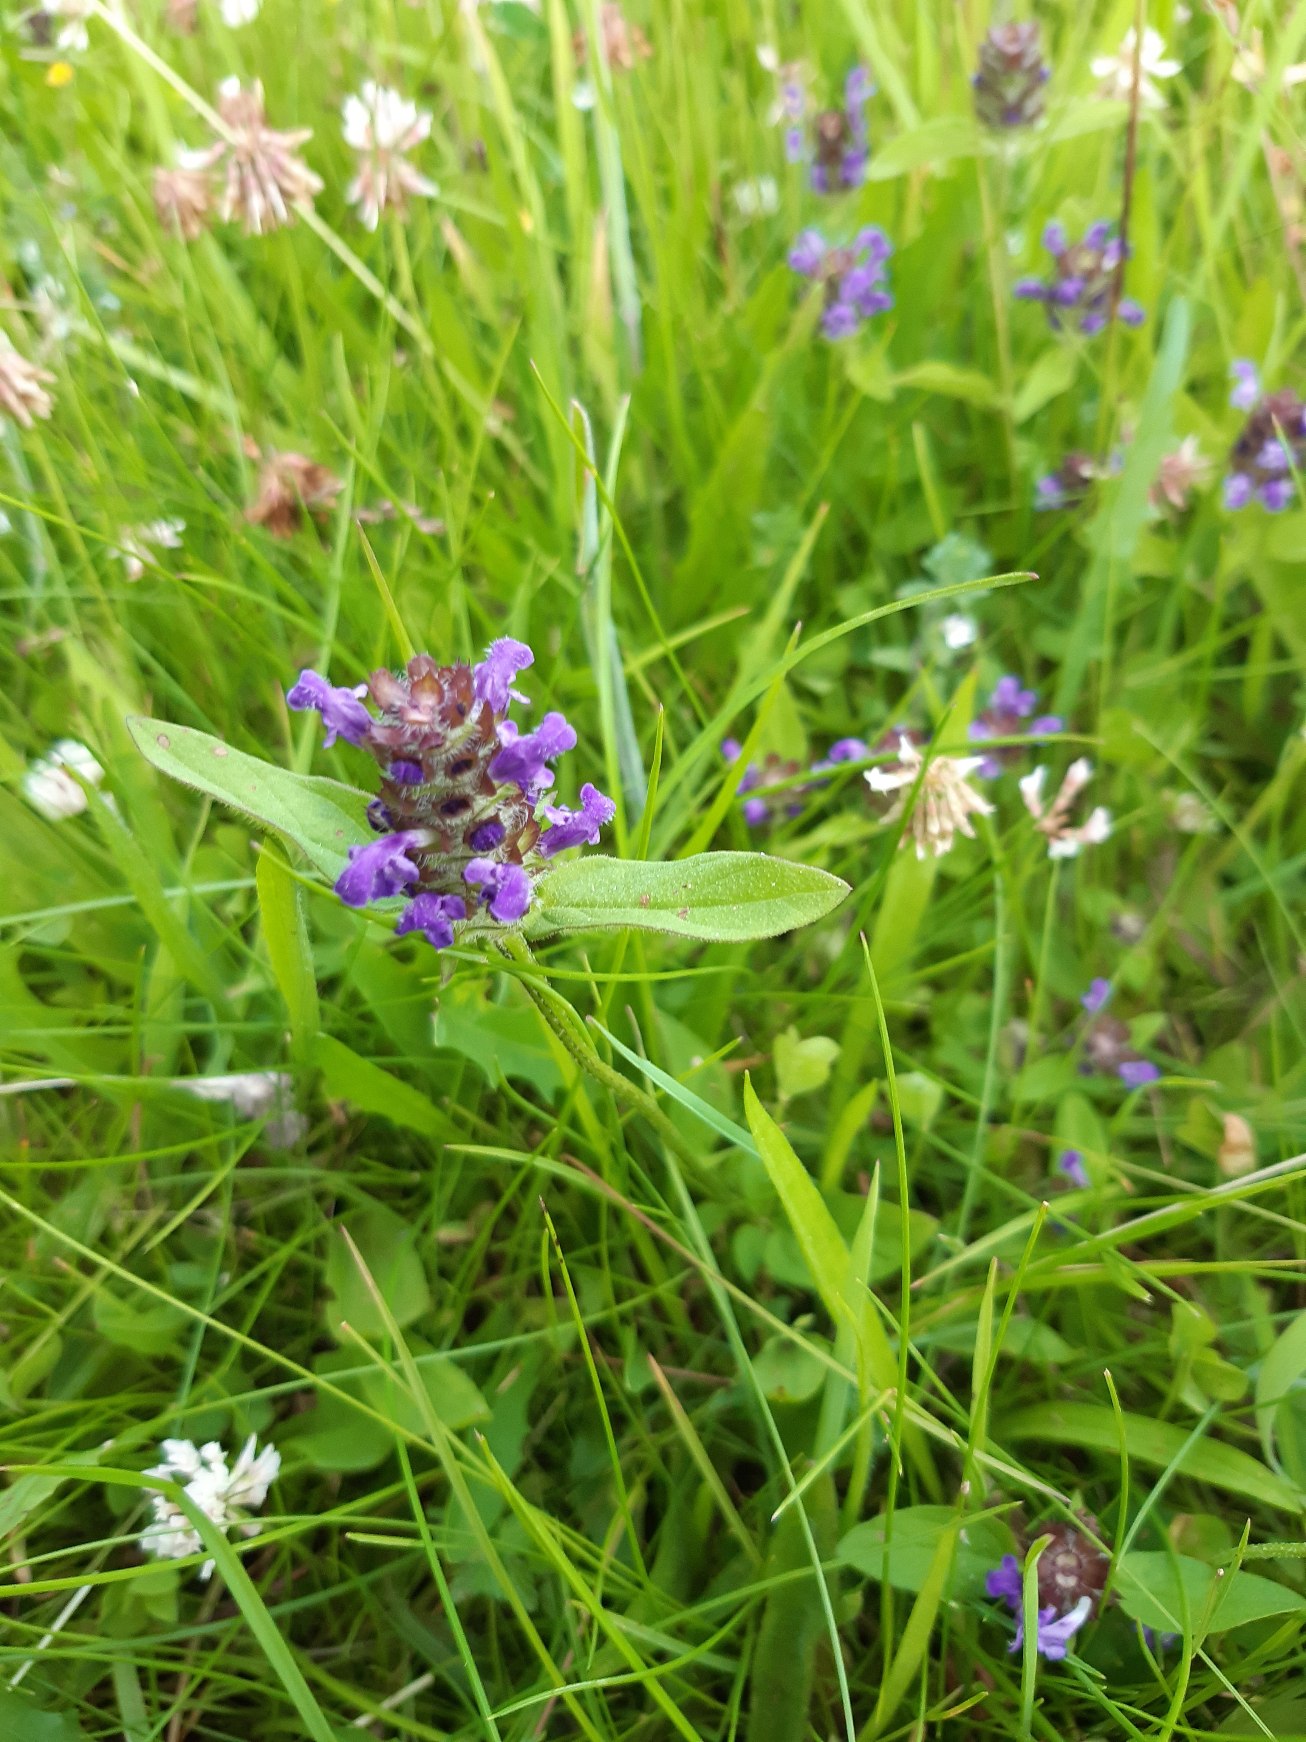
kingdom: Plantae
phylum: Tracheophyta
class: Magnoliopsida
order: Lamiales
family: Lamiaceae
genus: Prunella
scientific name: Prunella vulgaris
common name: Almindelig brunelle
